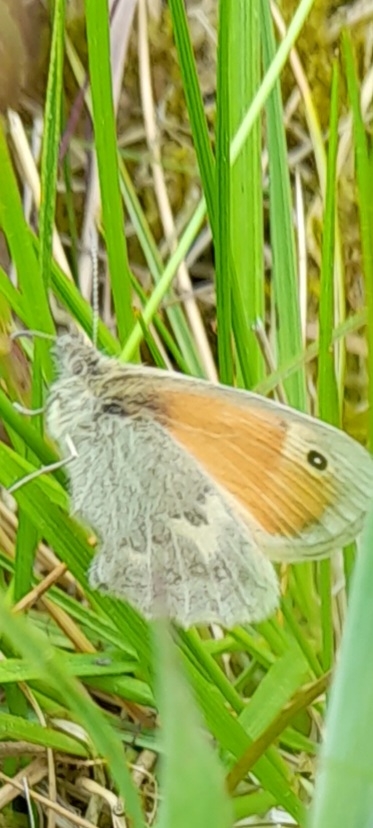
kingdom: Animalia
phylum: Arthropoda
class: Insecta
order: Lepidoptera
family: Nymphalidae
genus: Coenonympha
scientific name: Coenonympha pamphilus
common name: Okkergul randøje
